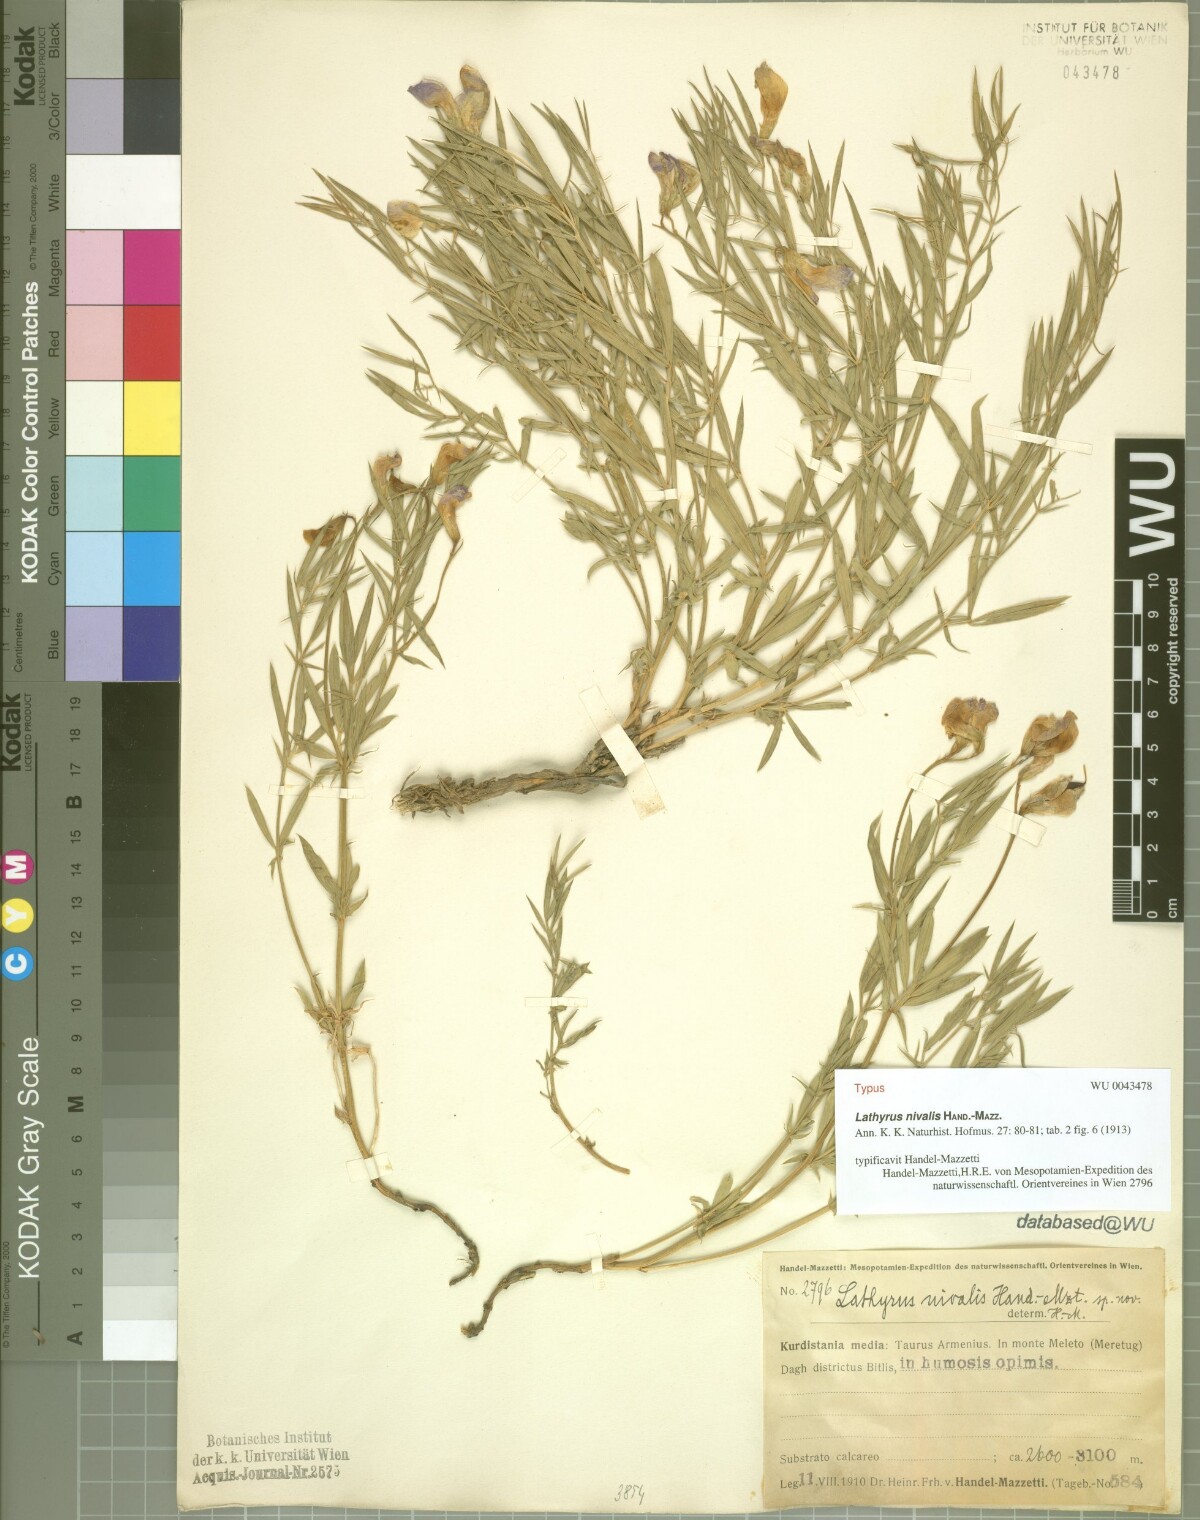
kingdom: Plantae
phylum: Tracheophyta
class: Magnoliopsida
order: Fabales
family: Fabaceae
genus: Lathyrus
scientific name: Lathyrus nivalis
